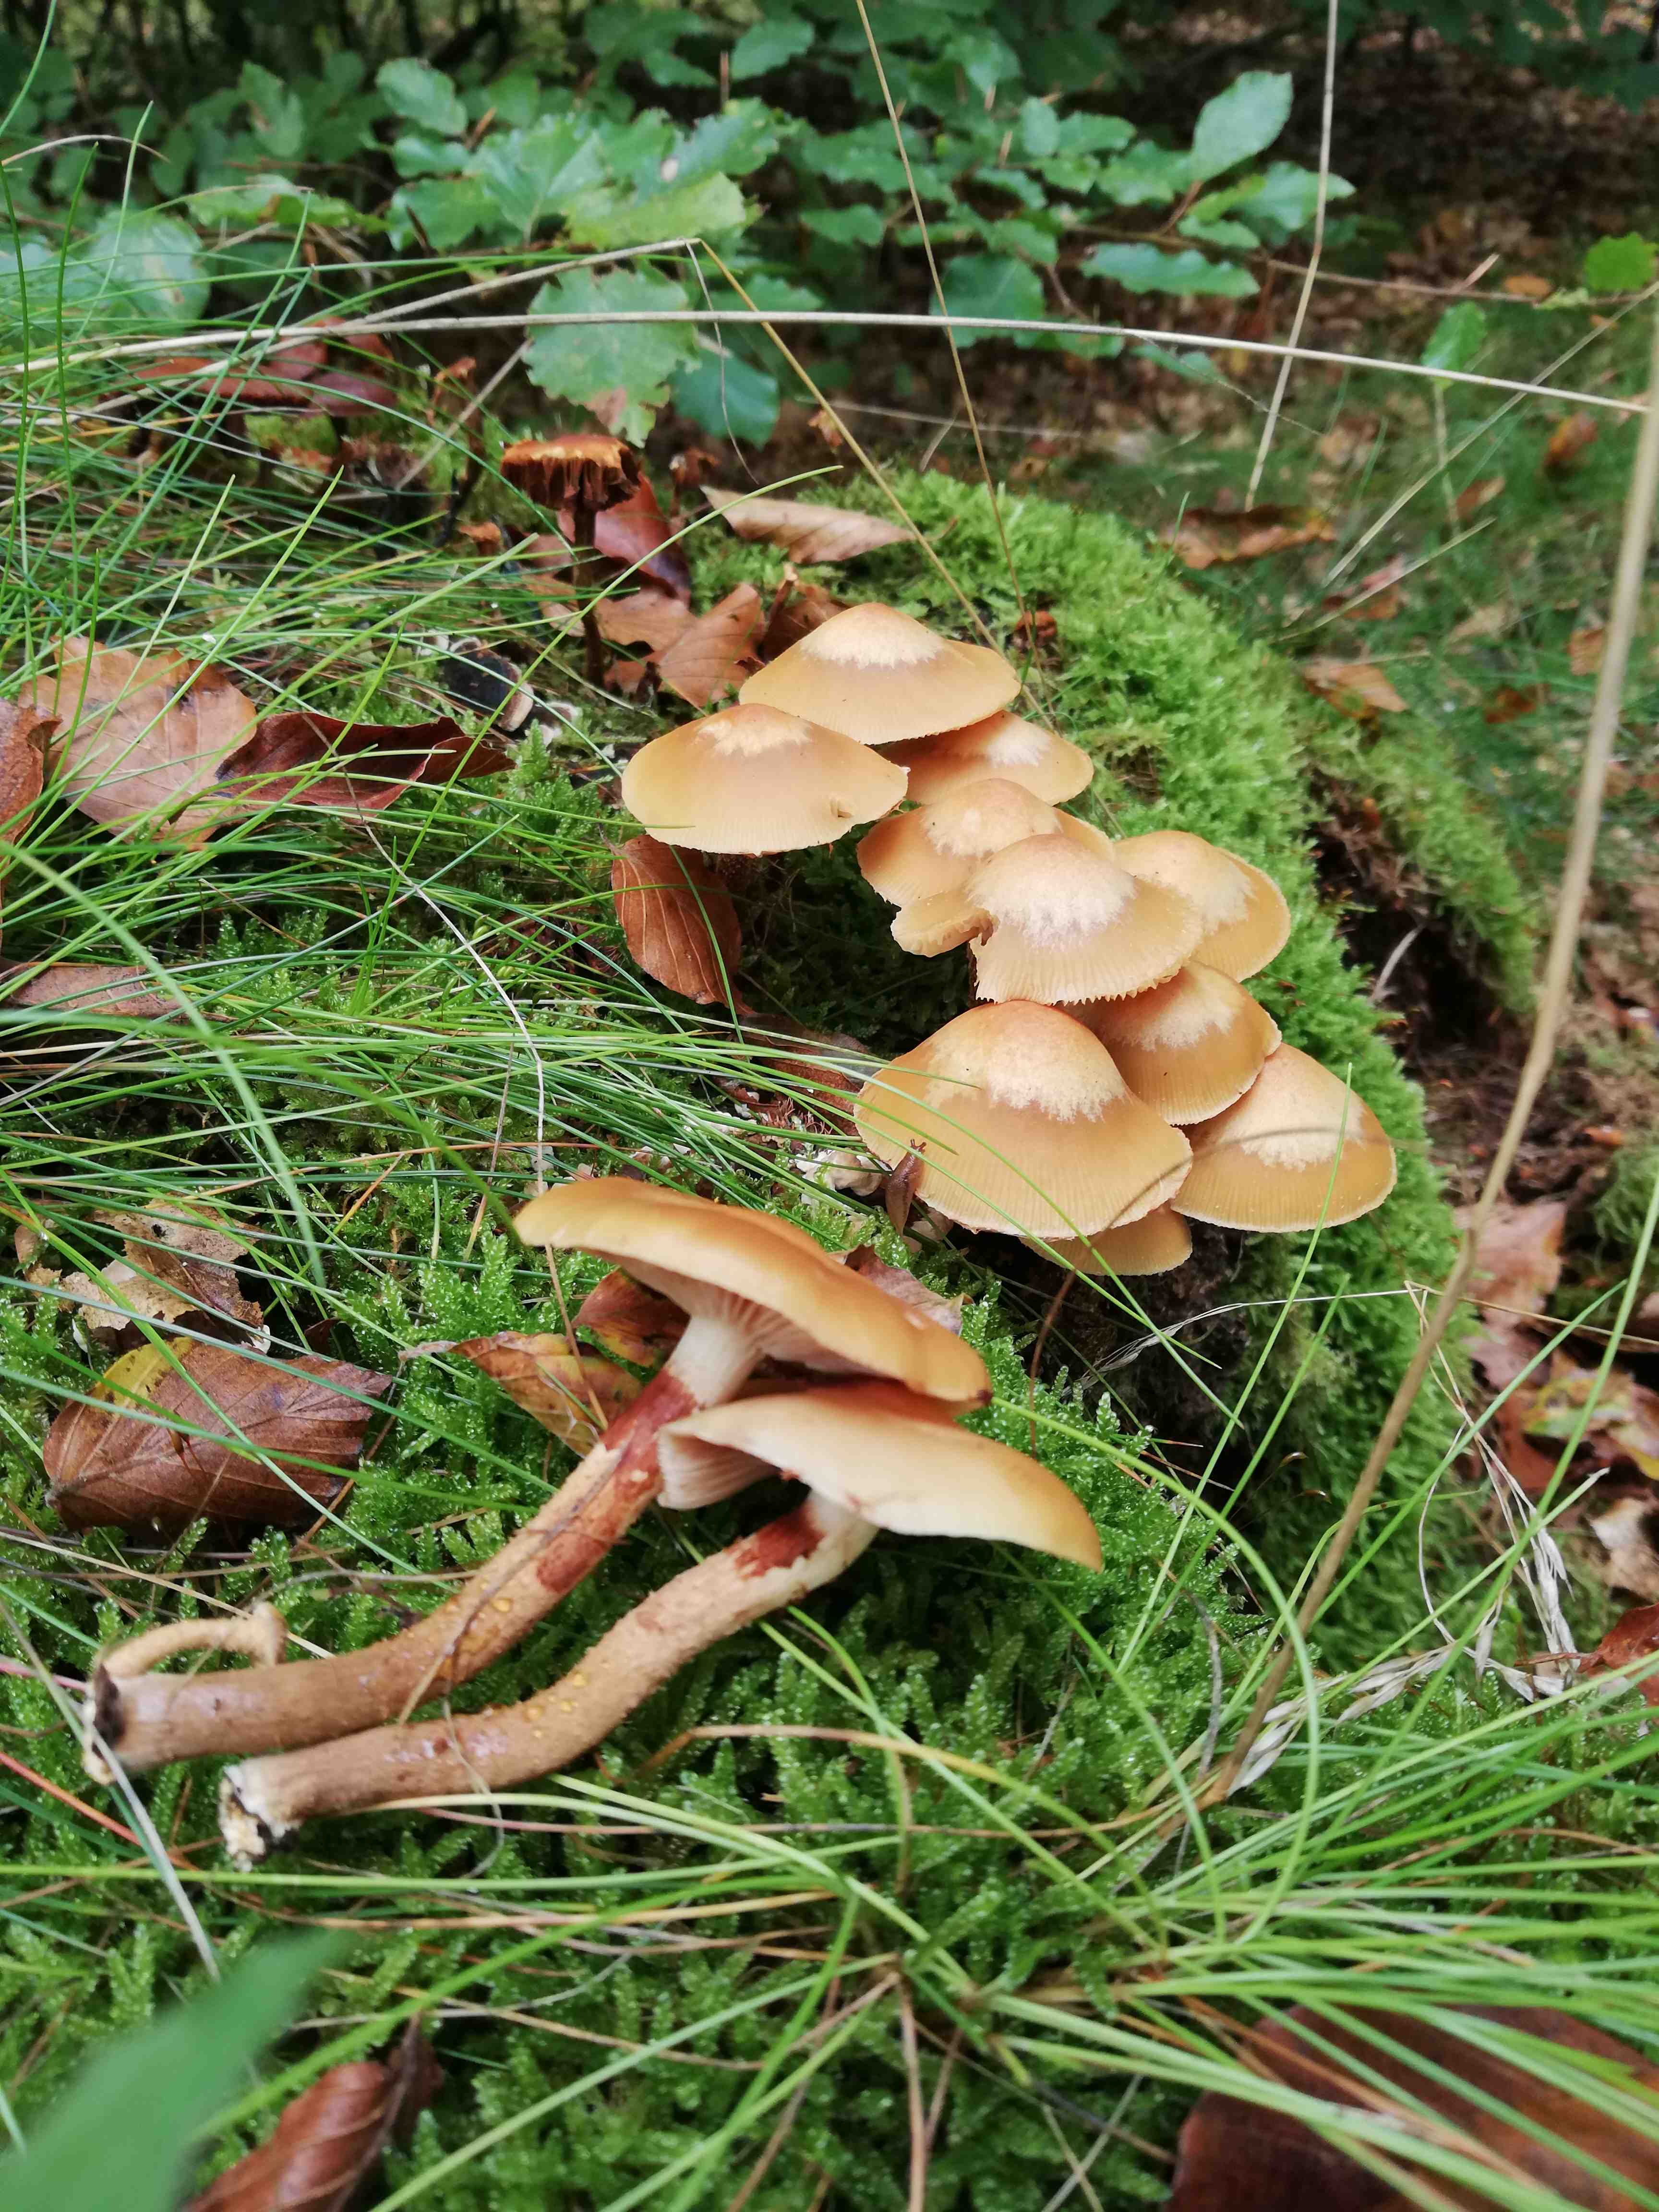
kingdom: Fungi
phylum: Basidiomycota
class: Agaricomycetes
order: Agaricales
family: Strophariaceae
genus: Kuehneromyces
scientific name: Kuehneromyces mutabilis
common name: foranderlig skælhat
